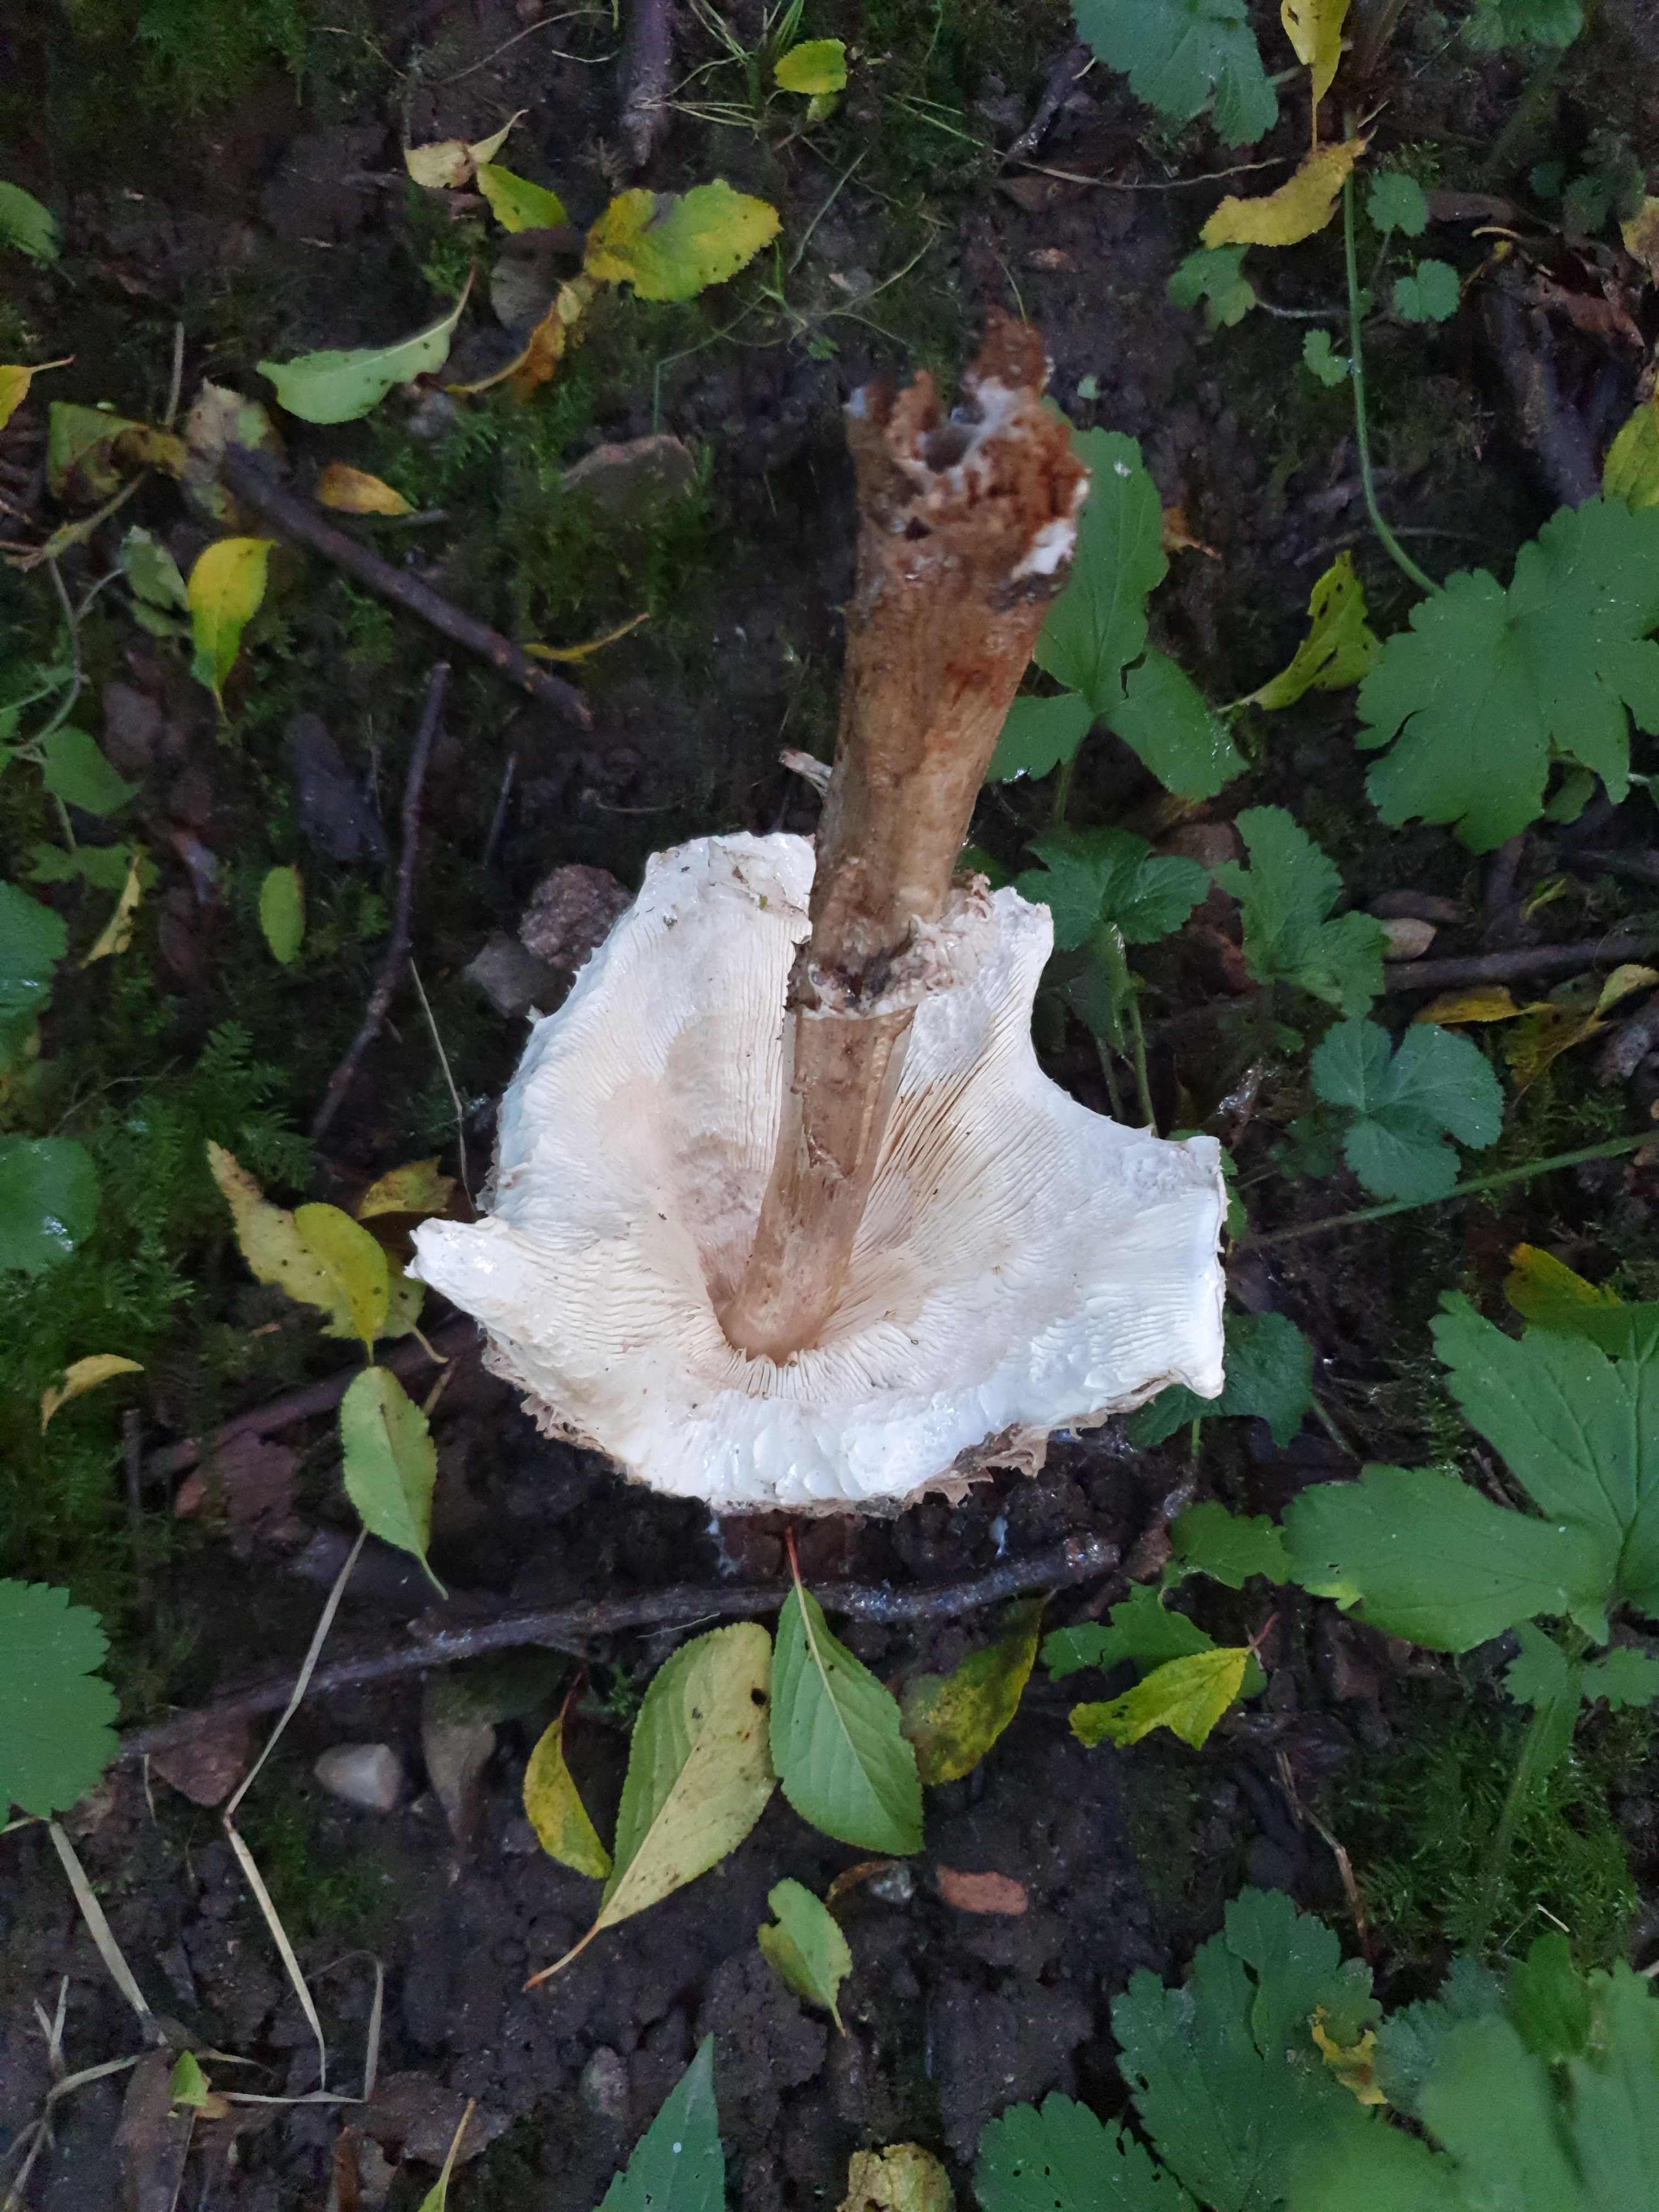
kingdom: Fungi
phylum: Basidiomycota
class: Agaricomycetes
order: Agaricales
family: Agaricaceae
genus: Chlorophyllum
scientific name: Chlorophyllum olivieri
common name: almindelig rabarberhat
